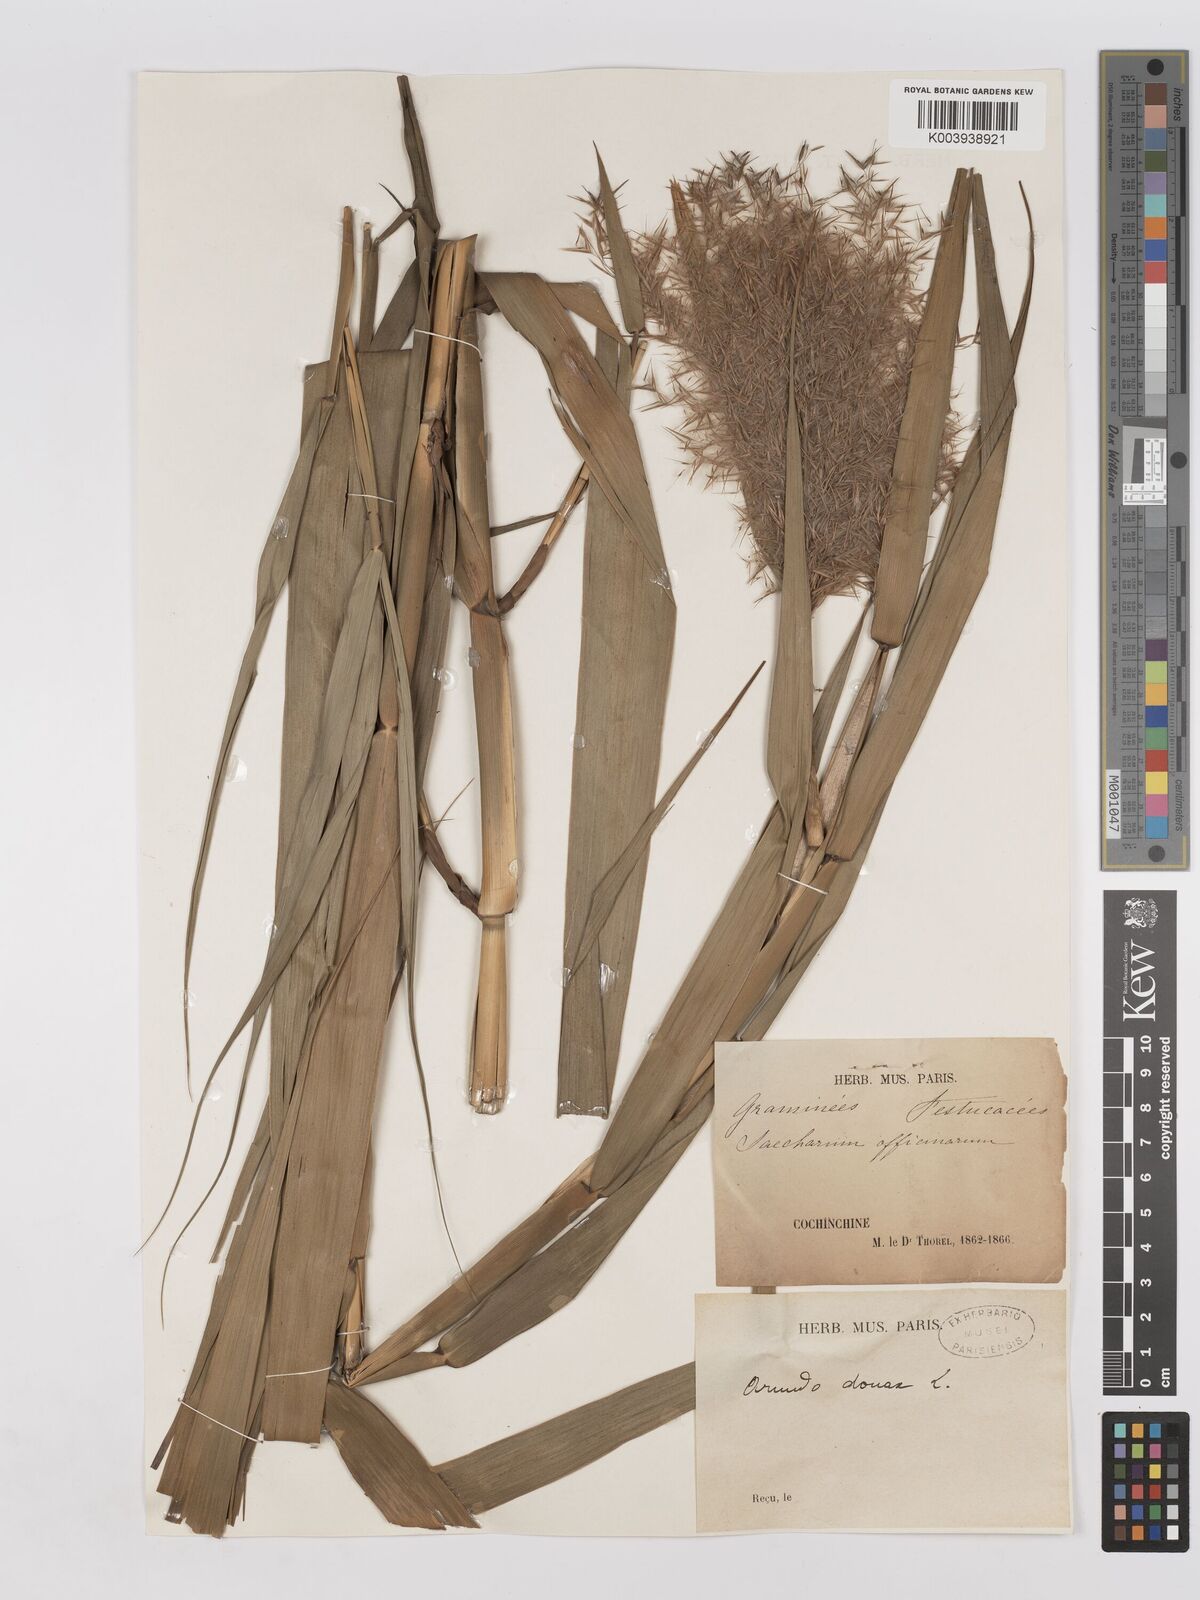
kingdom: Plantae
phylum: Tracheophyta
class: Liliopsida
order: Poales
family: Poaceae
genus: Phragmites
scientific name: Phragmites karka
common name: Tropical reed
